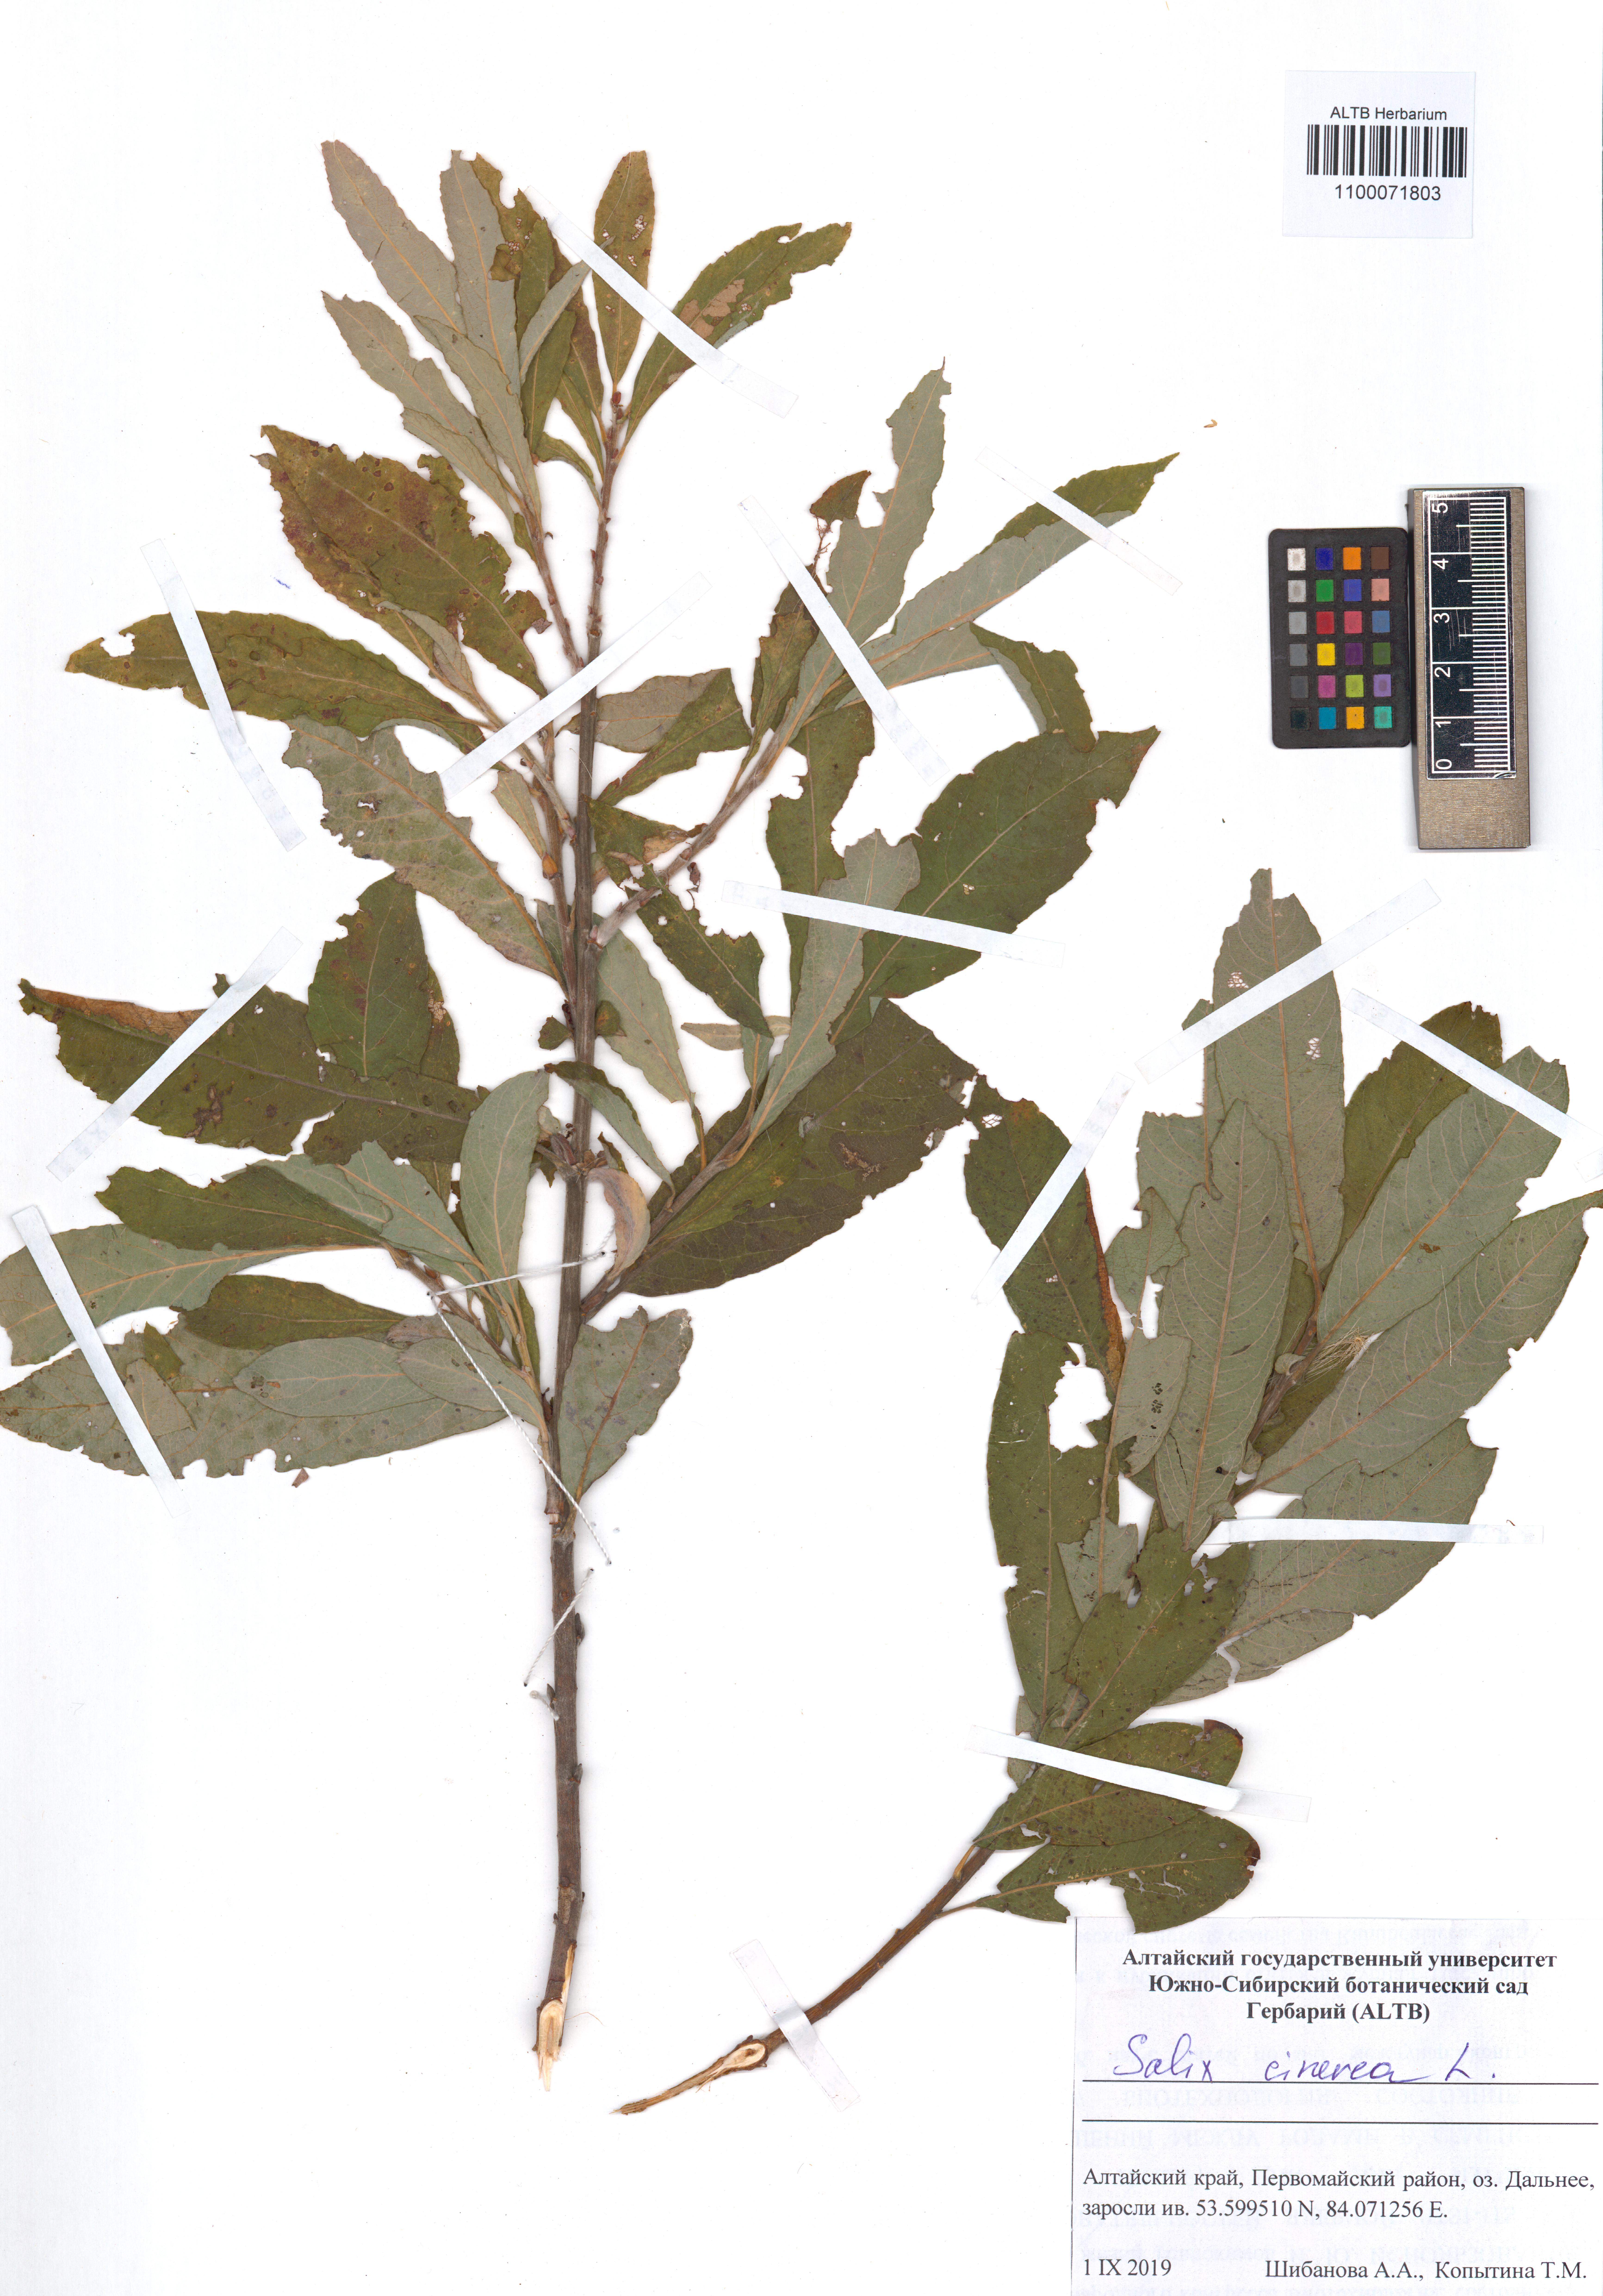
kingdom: Plantae
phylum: Tracheophyta
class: Magnoliopsida
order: Malpighiales
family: Salicaceae
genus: Salix
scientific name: Salix cinerea
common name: Common sallow
